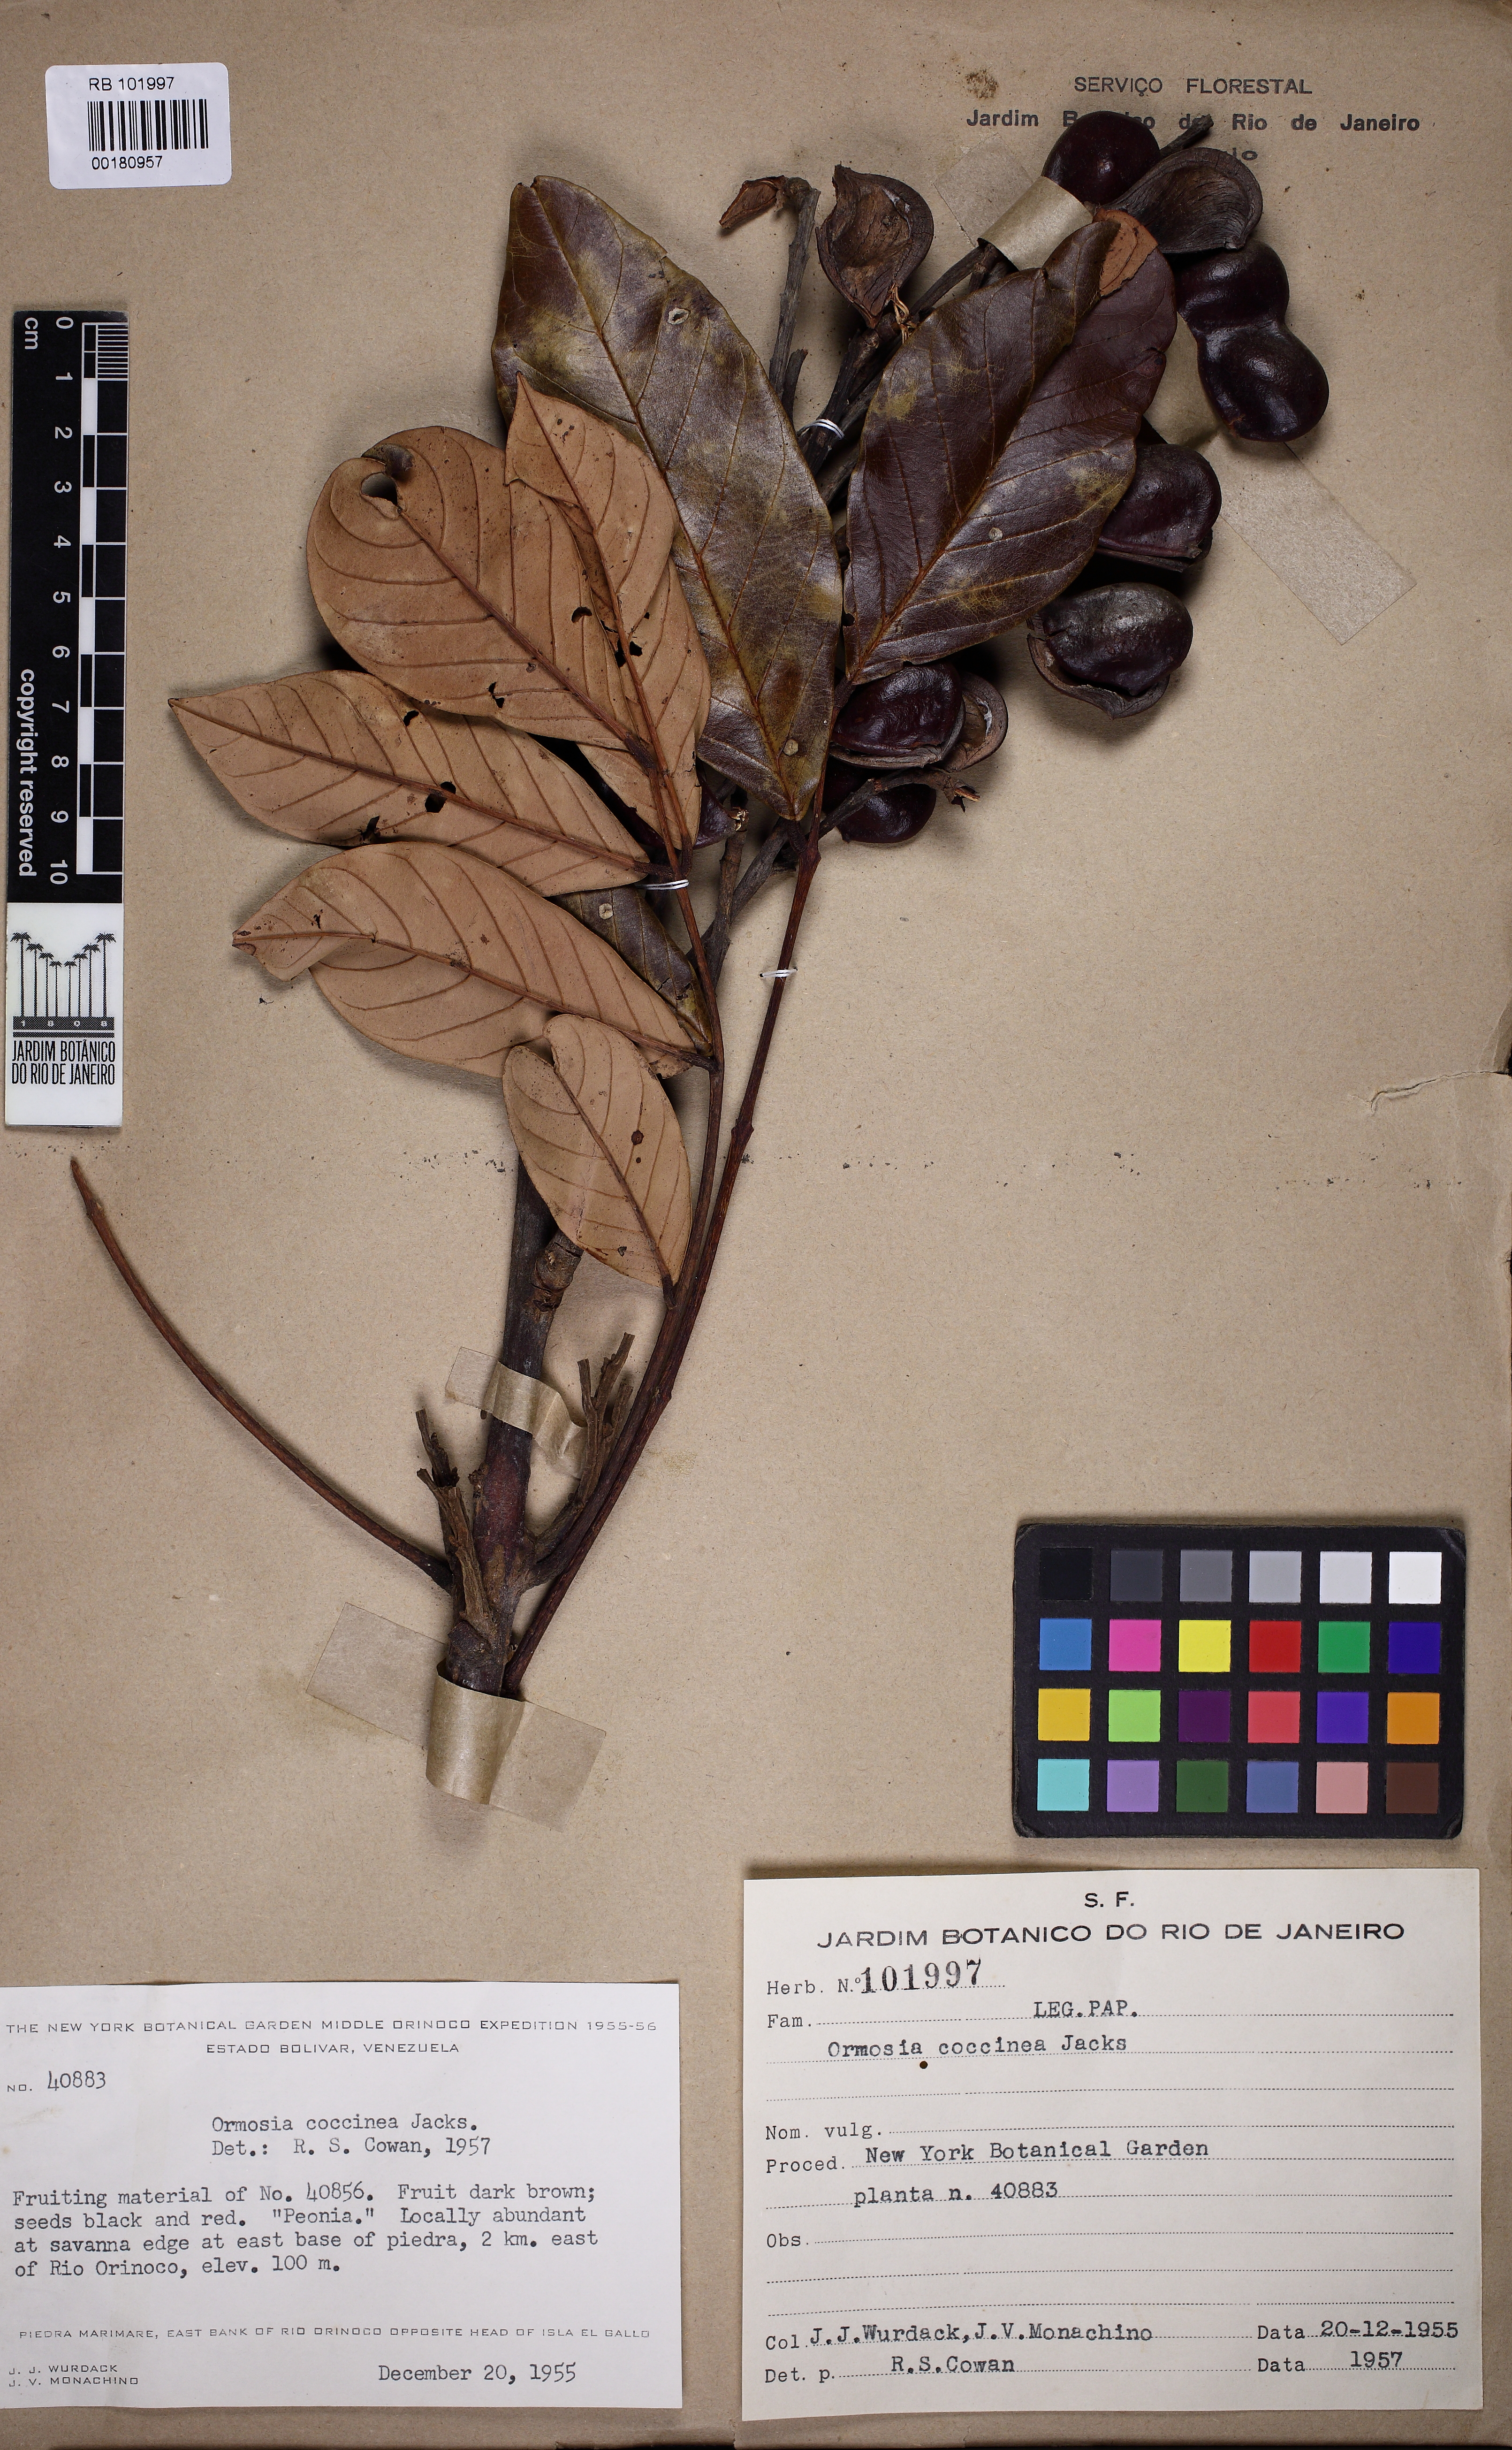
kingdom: Plantae
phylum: Tracheophyta
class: Magnoliopsida
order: Fabales
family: Fabaceae
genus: Ormosia
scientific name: Ormosia coccinea
